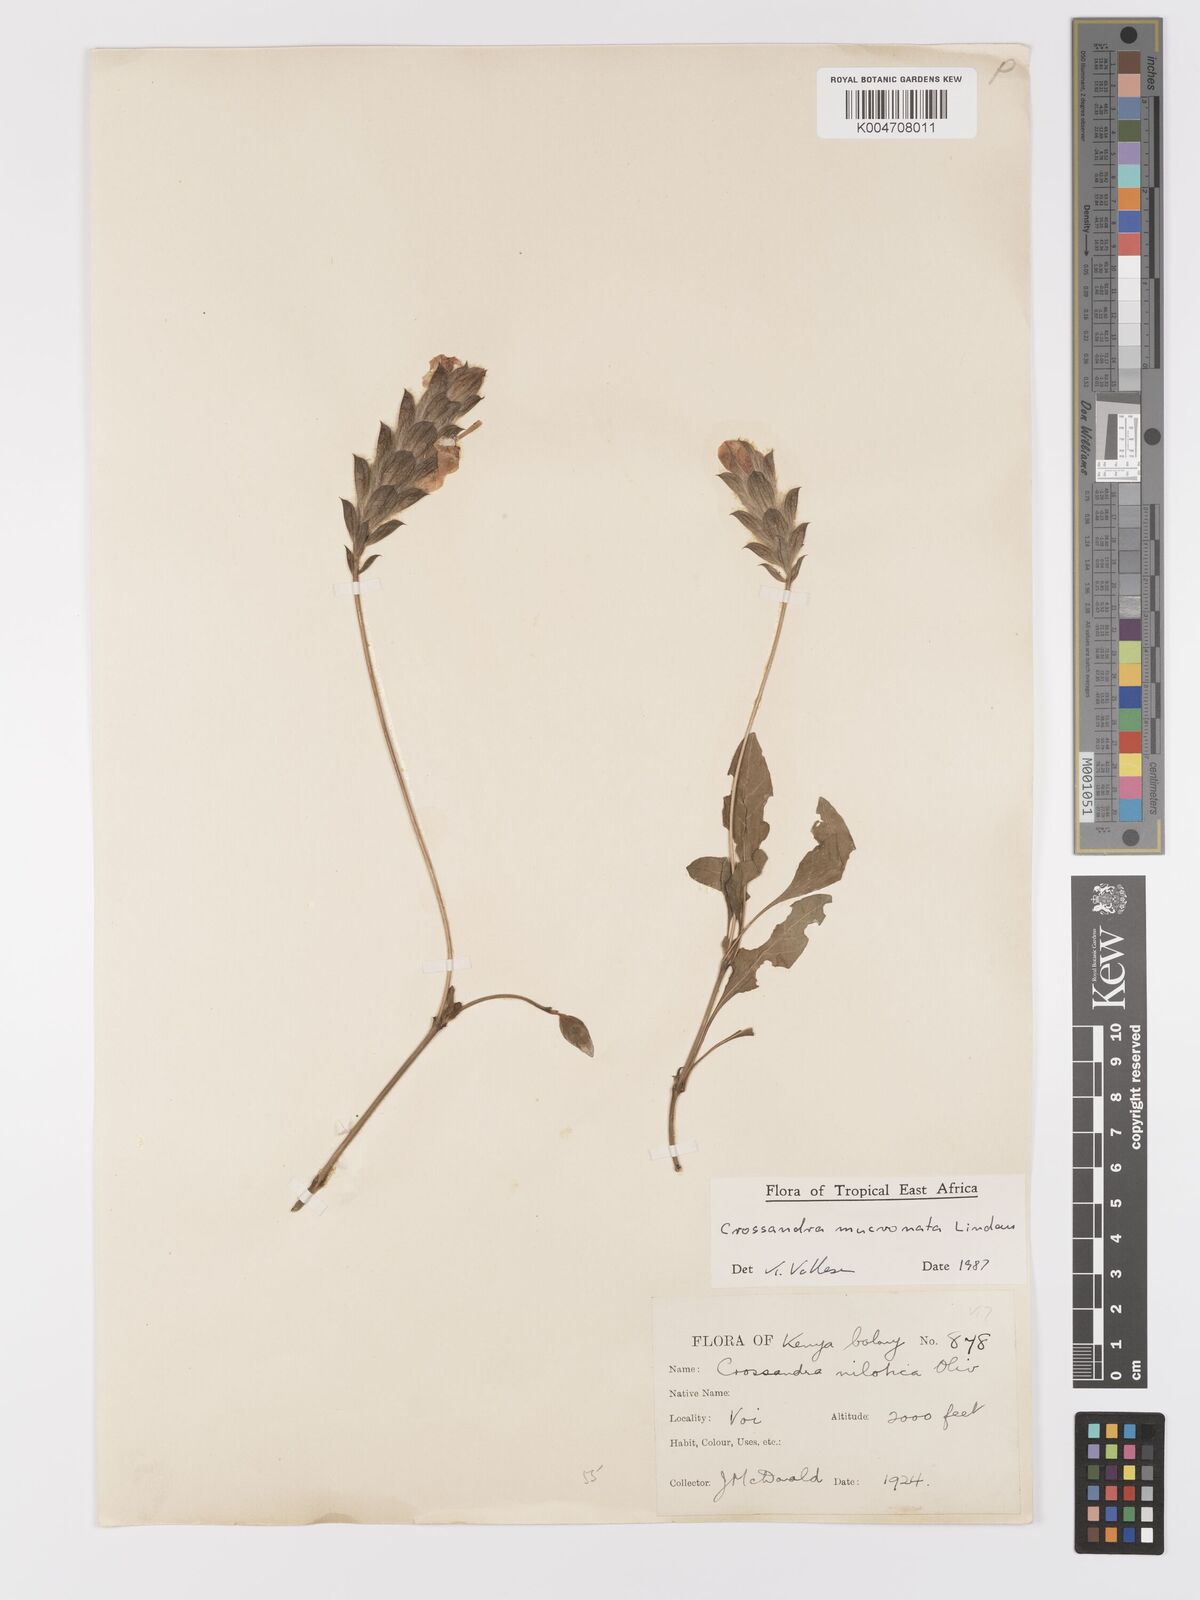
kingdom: Plantae
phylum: Tracheophyta
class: Magnoliopsida
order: Lamiales
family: Acanthaceae
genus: Crossandra
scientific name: Crossandra mucronata
